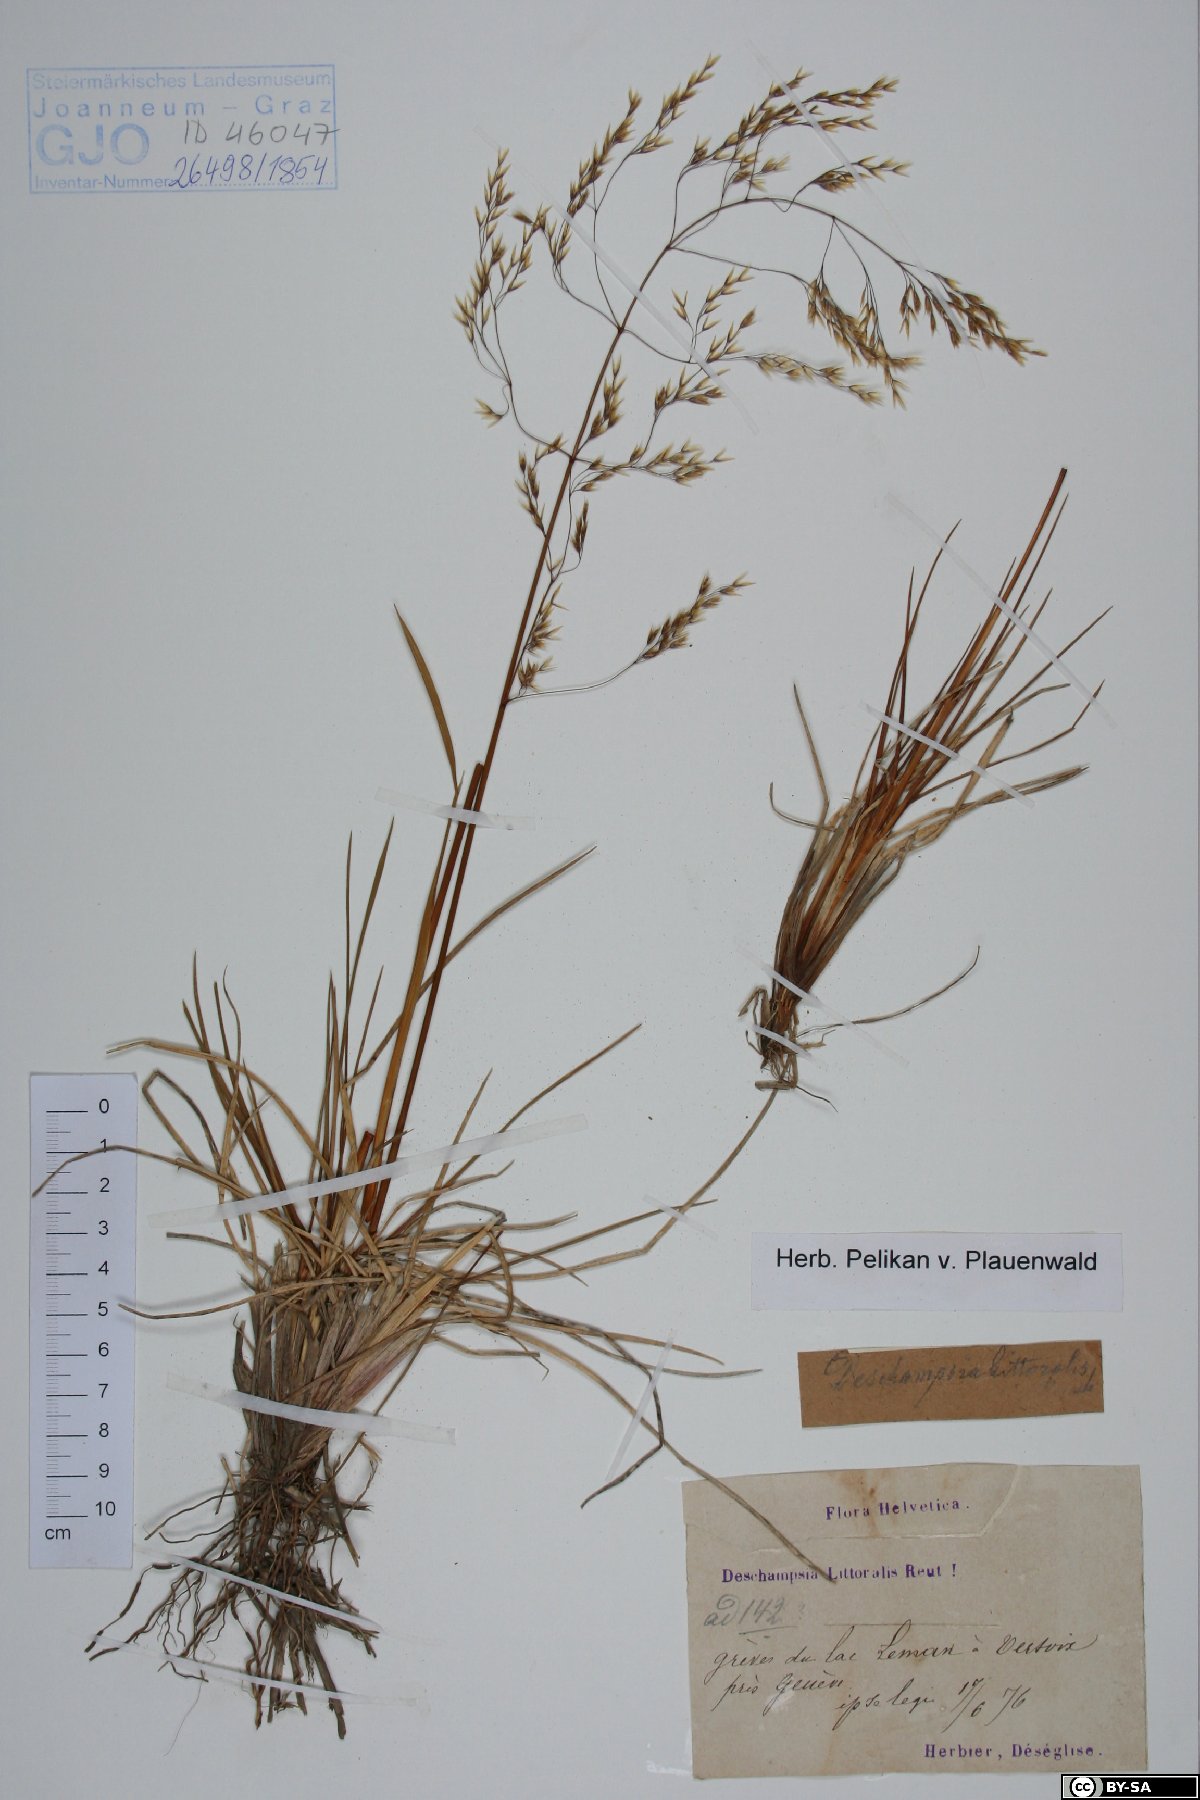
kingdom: Plantae
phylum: Tracheophyta
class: Liliopsida
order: Poales
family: Poaceae
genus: Deschampsia
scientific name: Deschampsia cespitosa
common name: Tufted hair-grass
